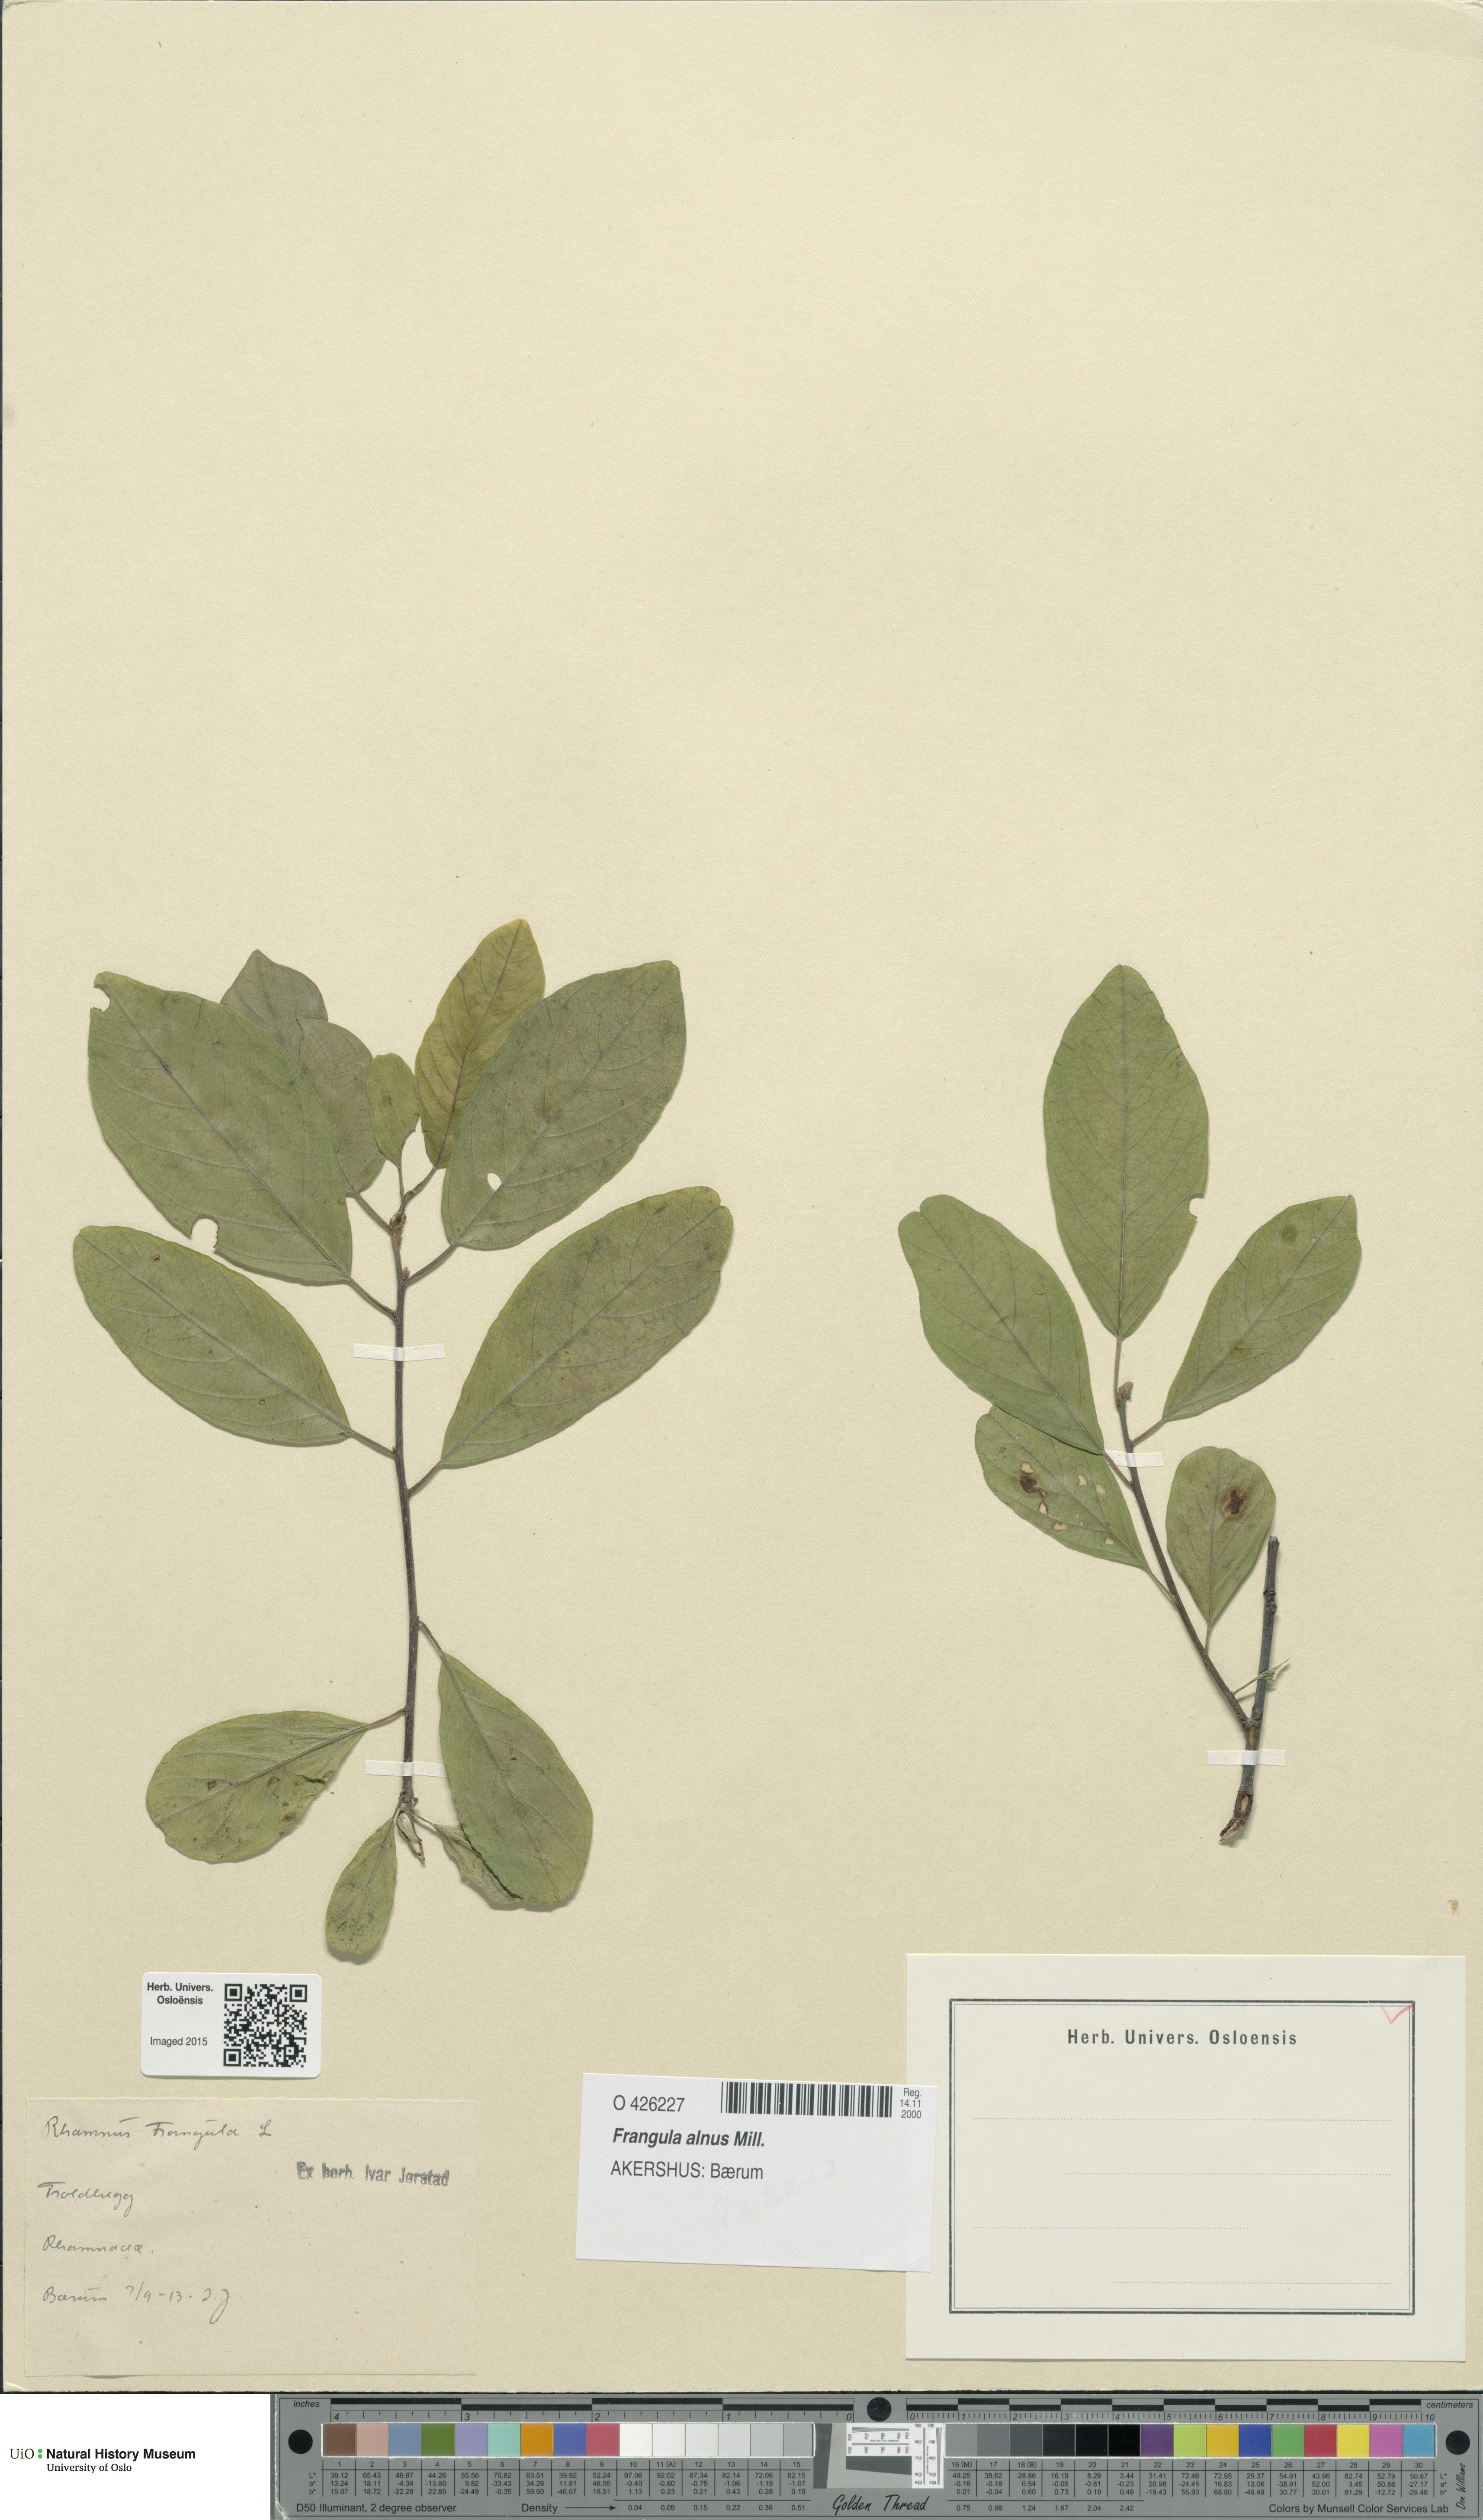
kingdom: Plantae
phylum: Tracheophyta
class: Magnoliopsida
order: Rosales
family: Rhamnaceae
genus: Frangula
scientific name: Frangula alnus
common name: Alder buckthorn
